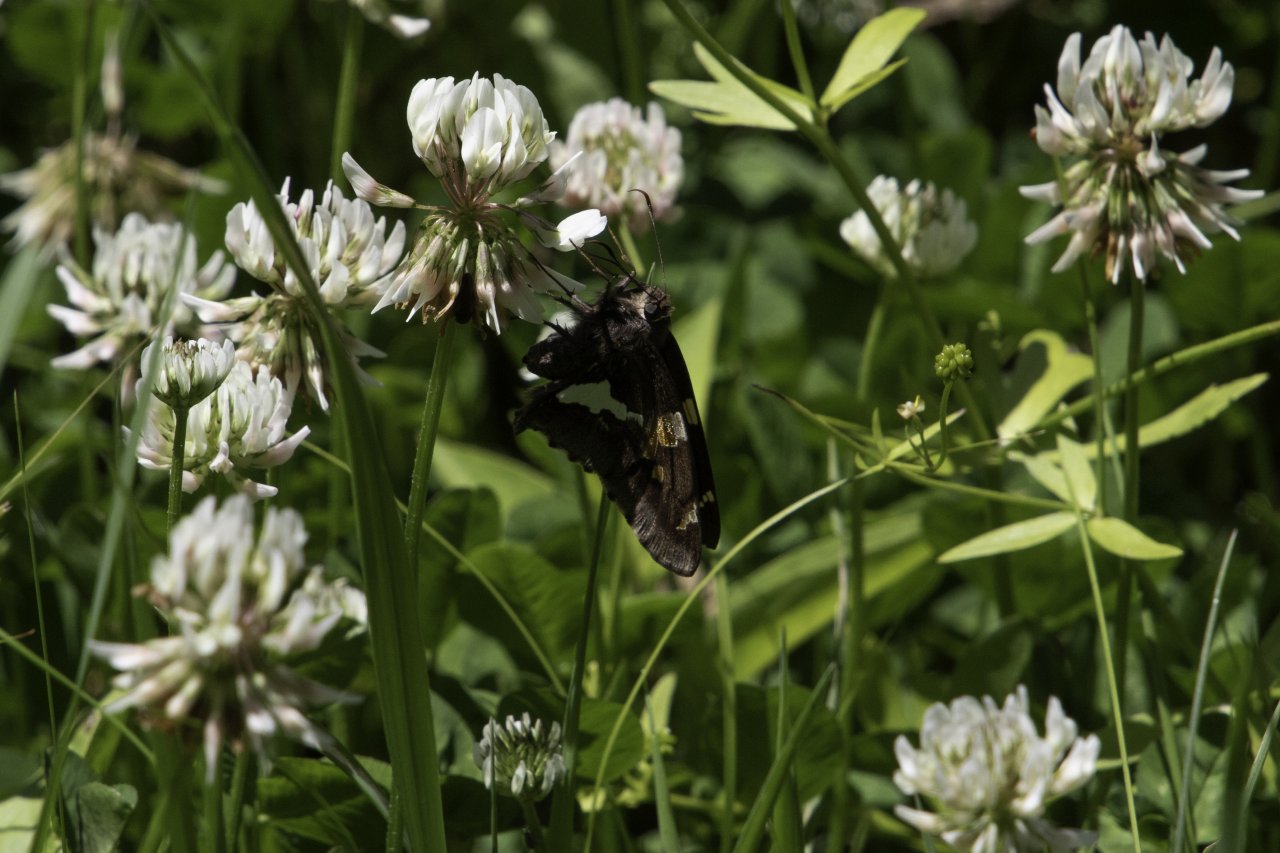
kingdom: Animalia
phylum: Arthropoda
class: Insecta
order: Lepidoptera
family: Hesperiidae
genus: Epargyreus
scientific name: Epargyreus clarus
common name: Silver-spotted Skipper
